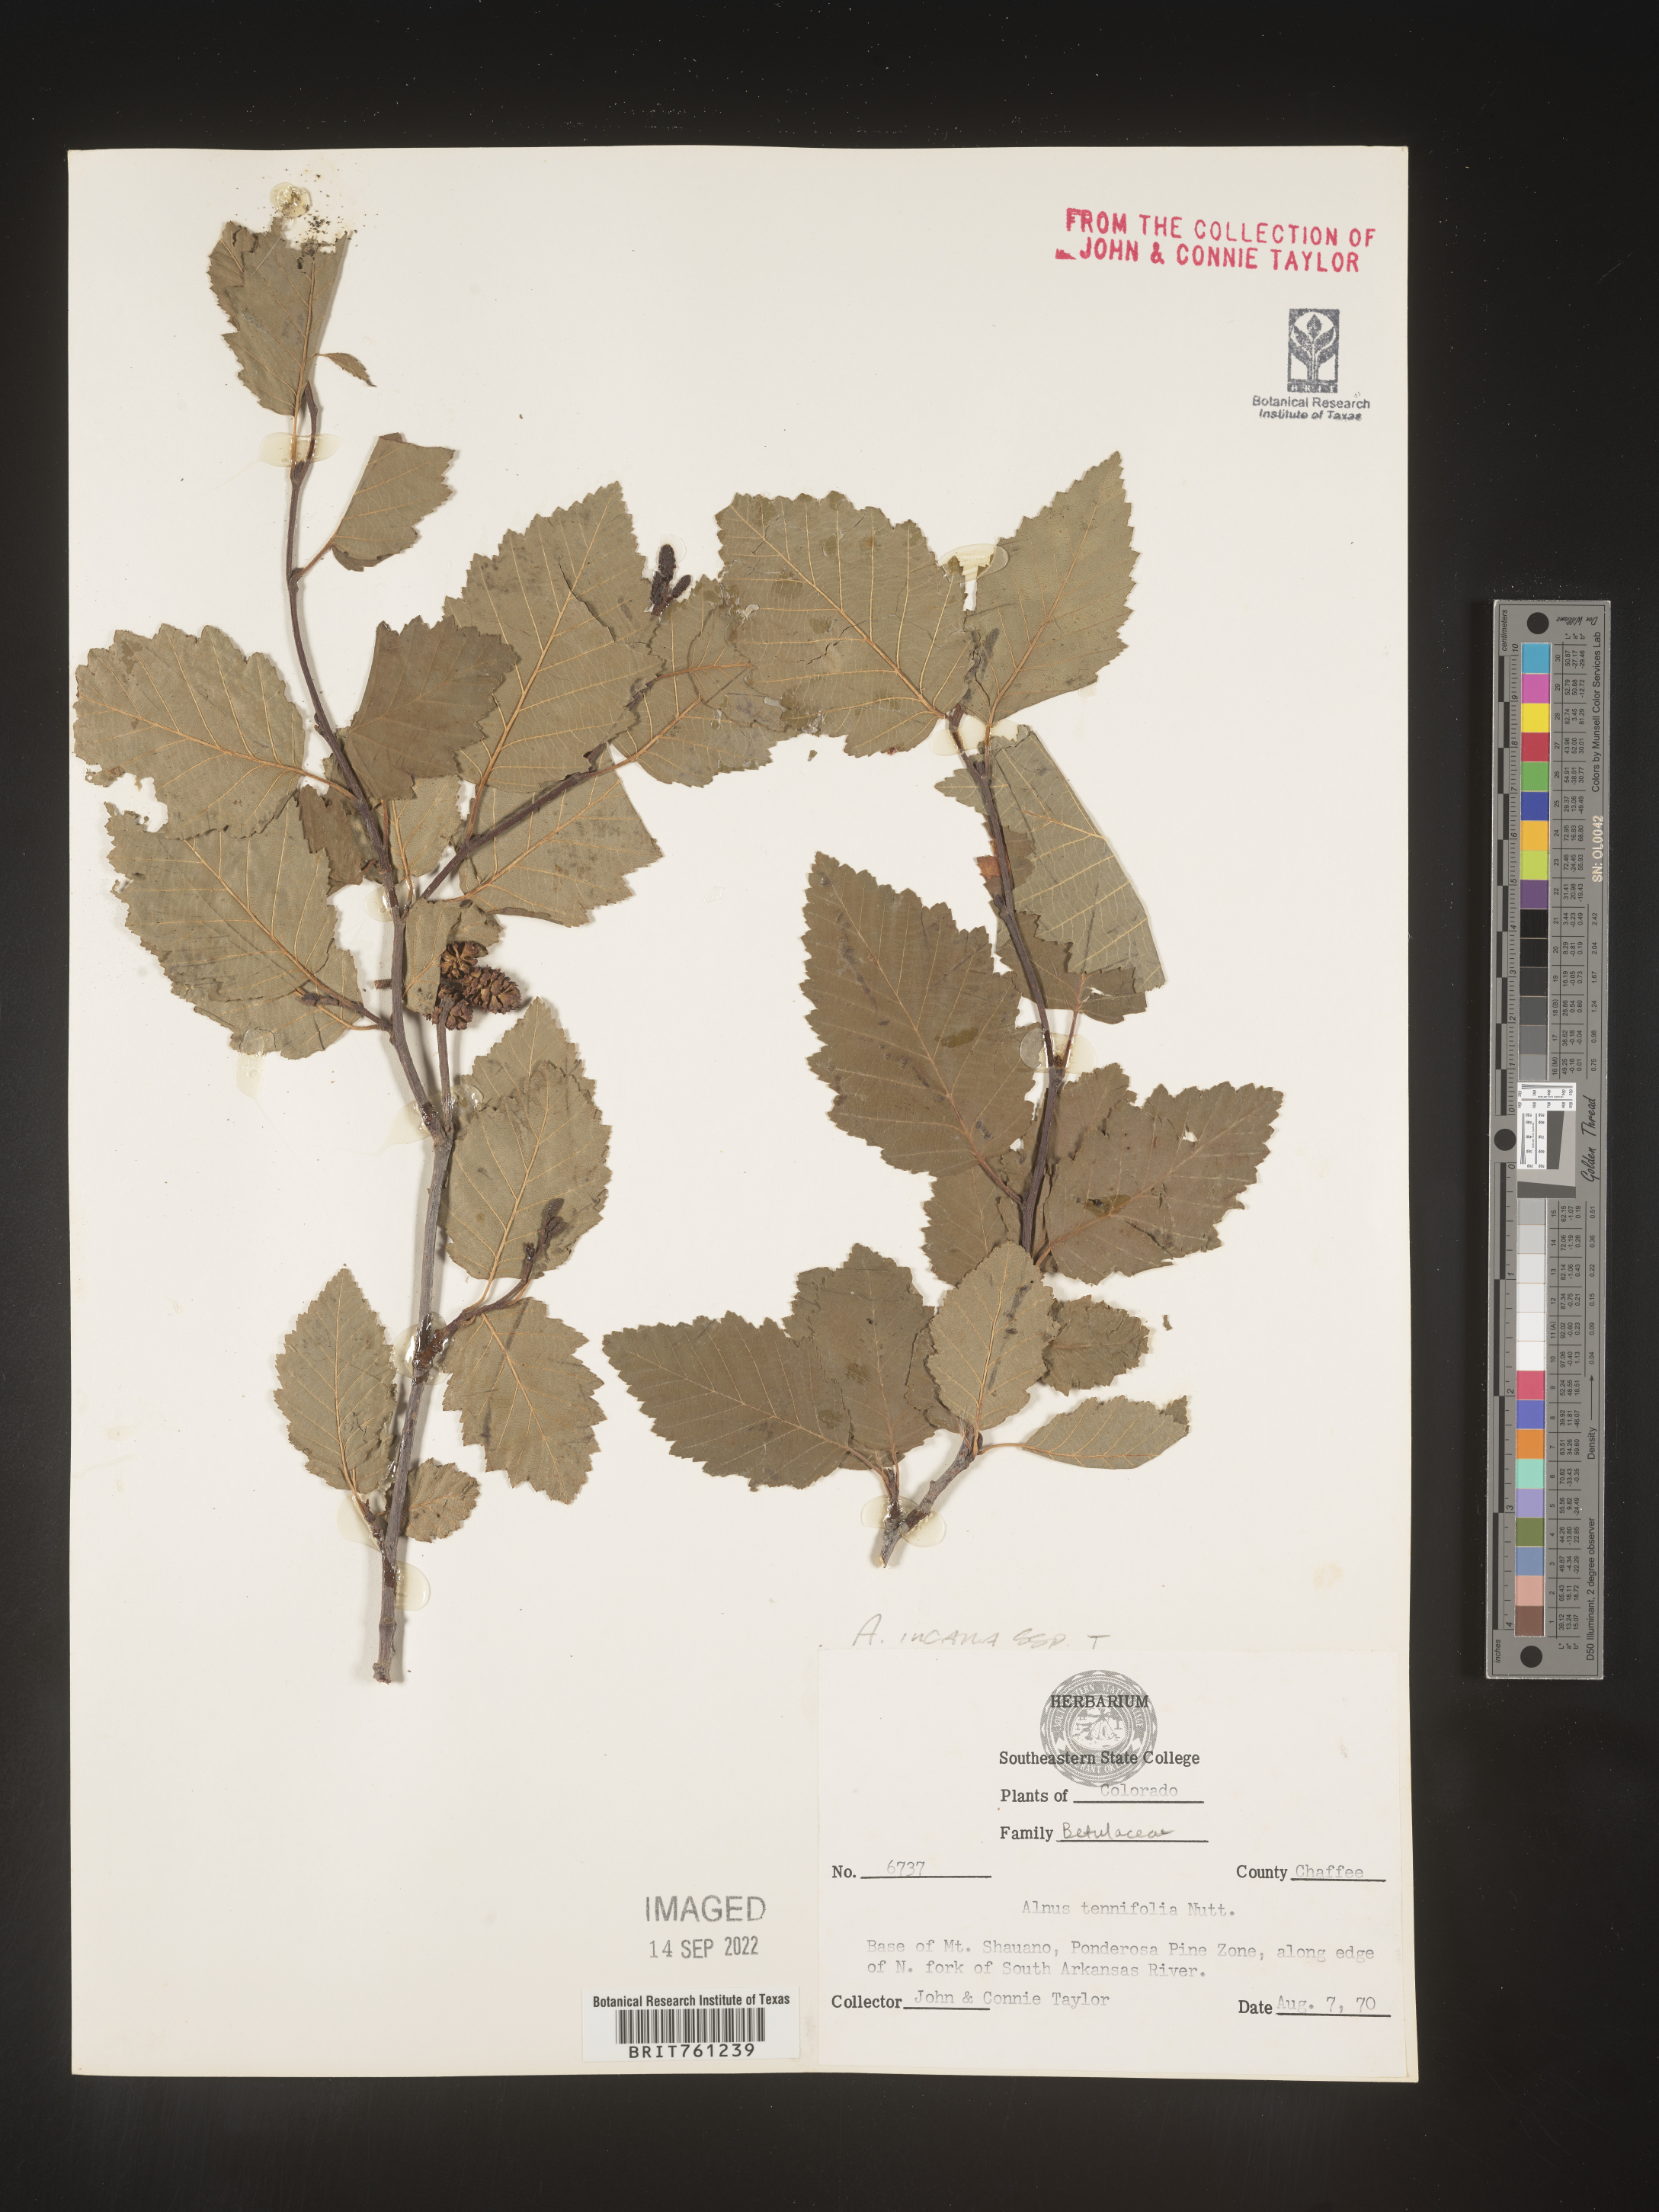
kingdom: Plantae
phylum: Tracheophyta
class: Magnoliopsida
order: Fagales
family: Betulaceae
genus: Alnus
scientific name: Alnus incana
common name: Grey alder
